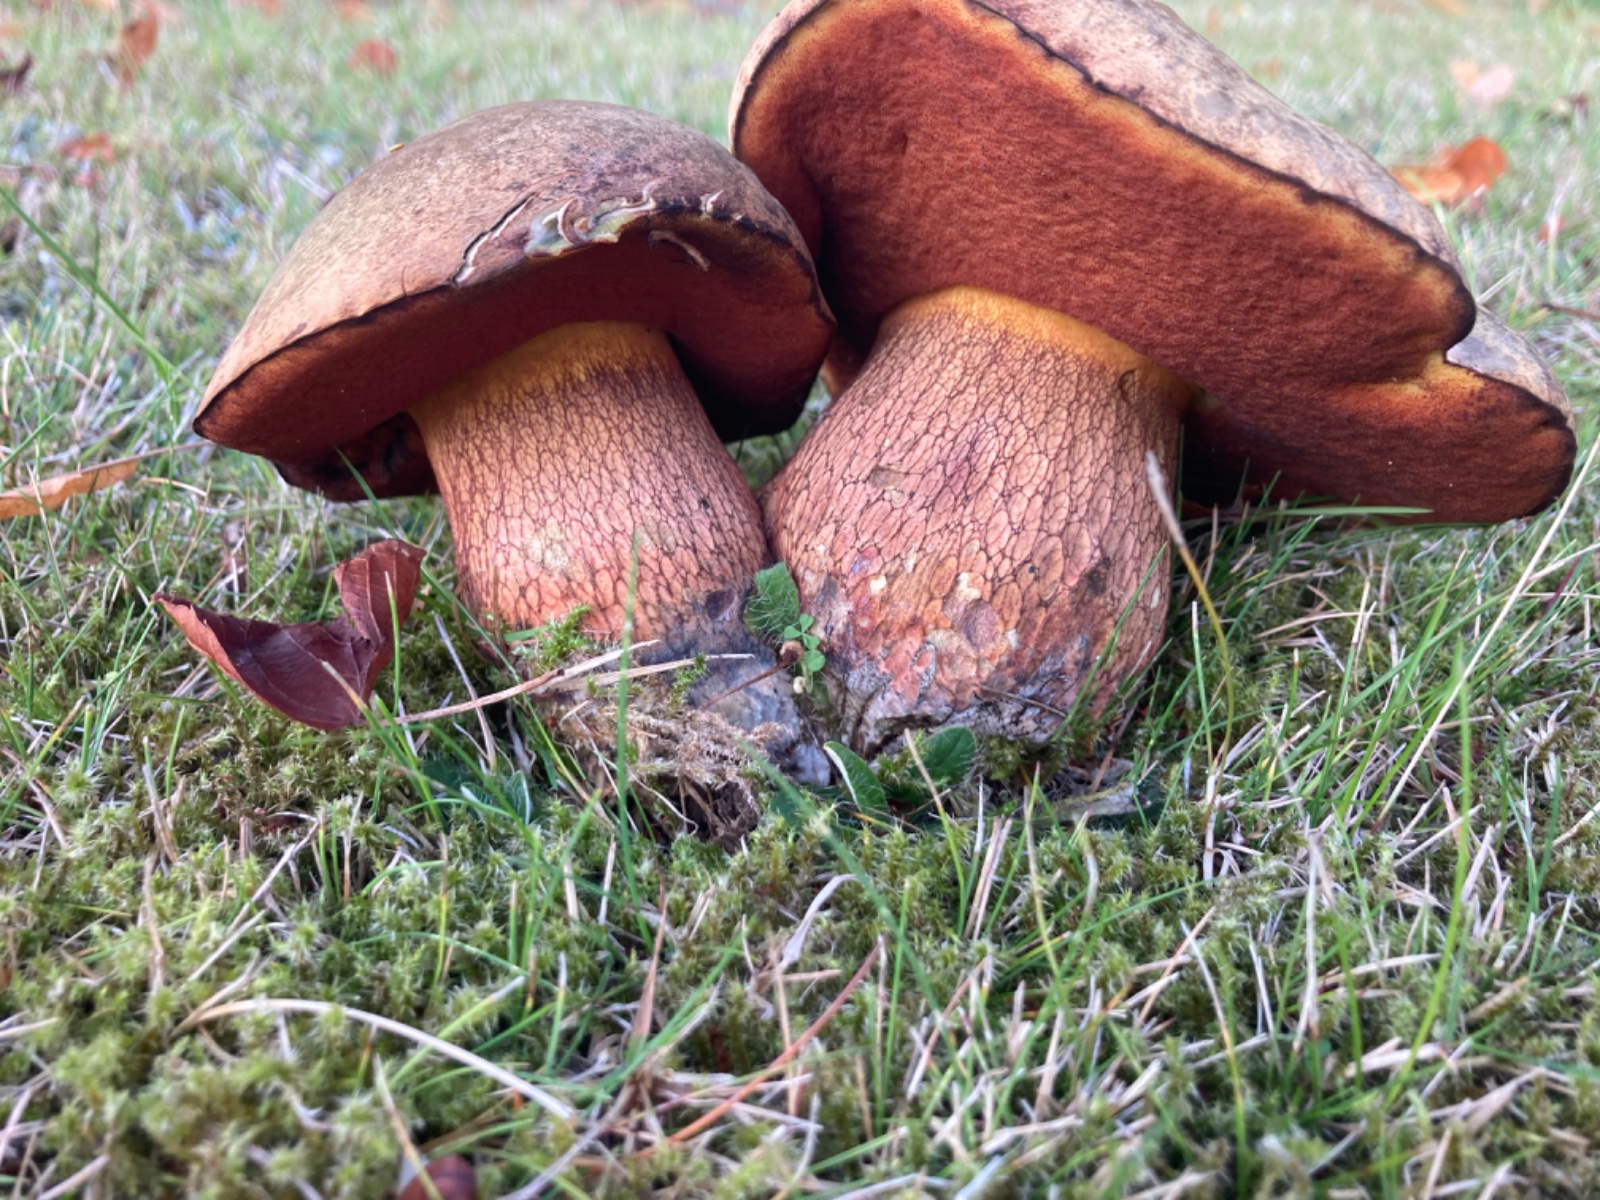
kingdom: Fungi
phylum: Basidiomycota
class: Agaricomycetes
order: Boletales
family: Boletaceae
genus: Suillellus
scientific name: Suillellus luridus
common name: netstokket indigorørhat
